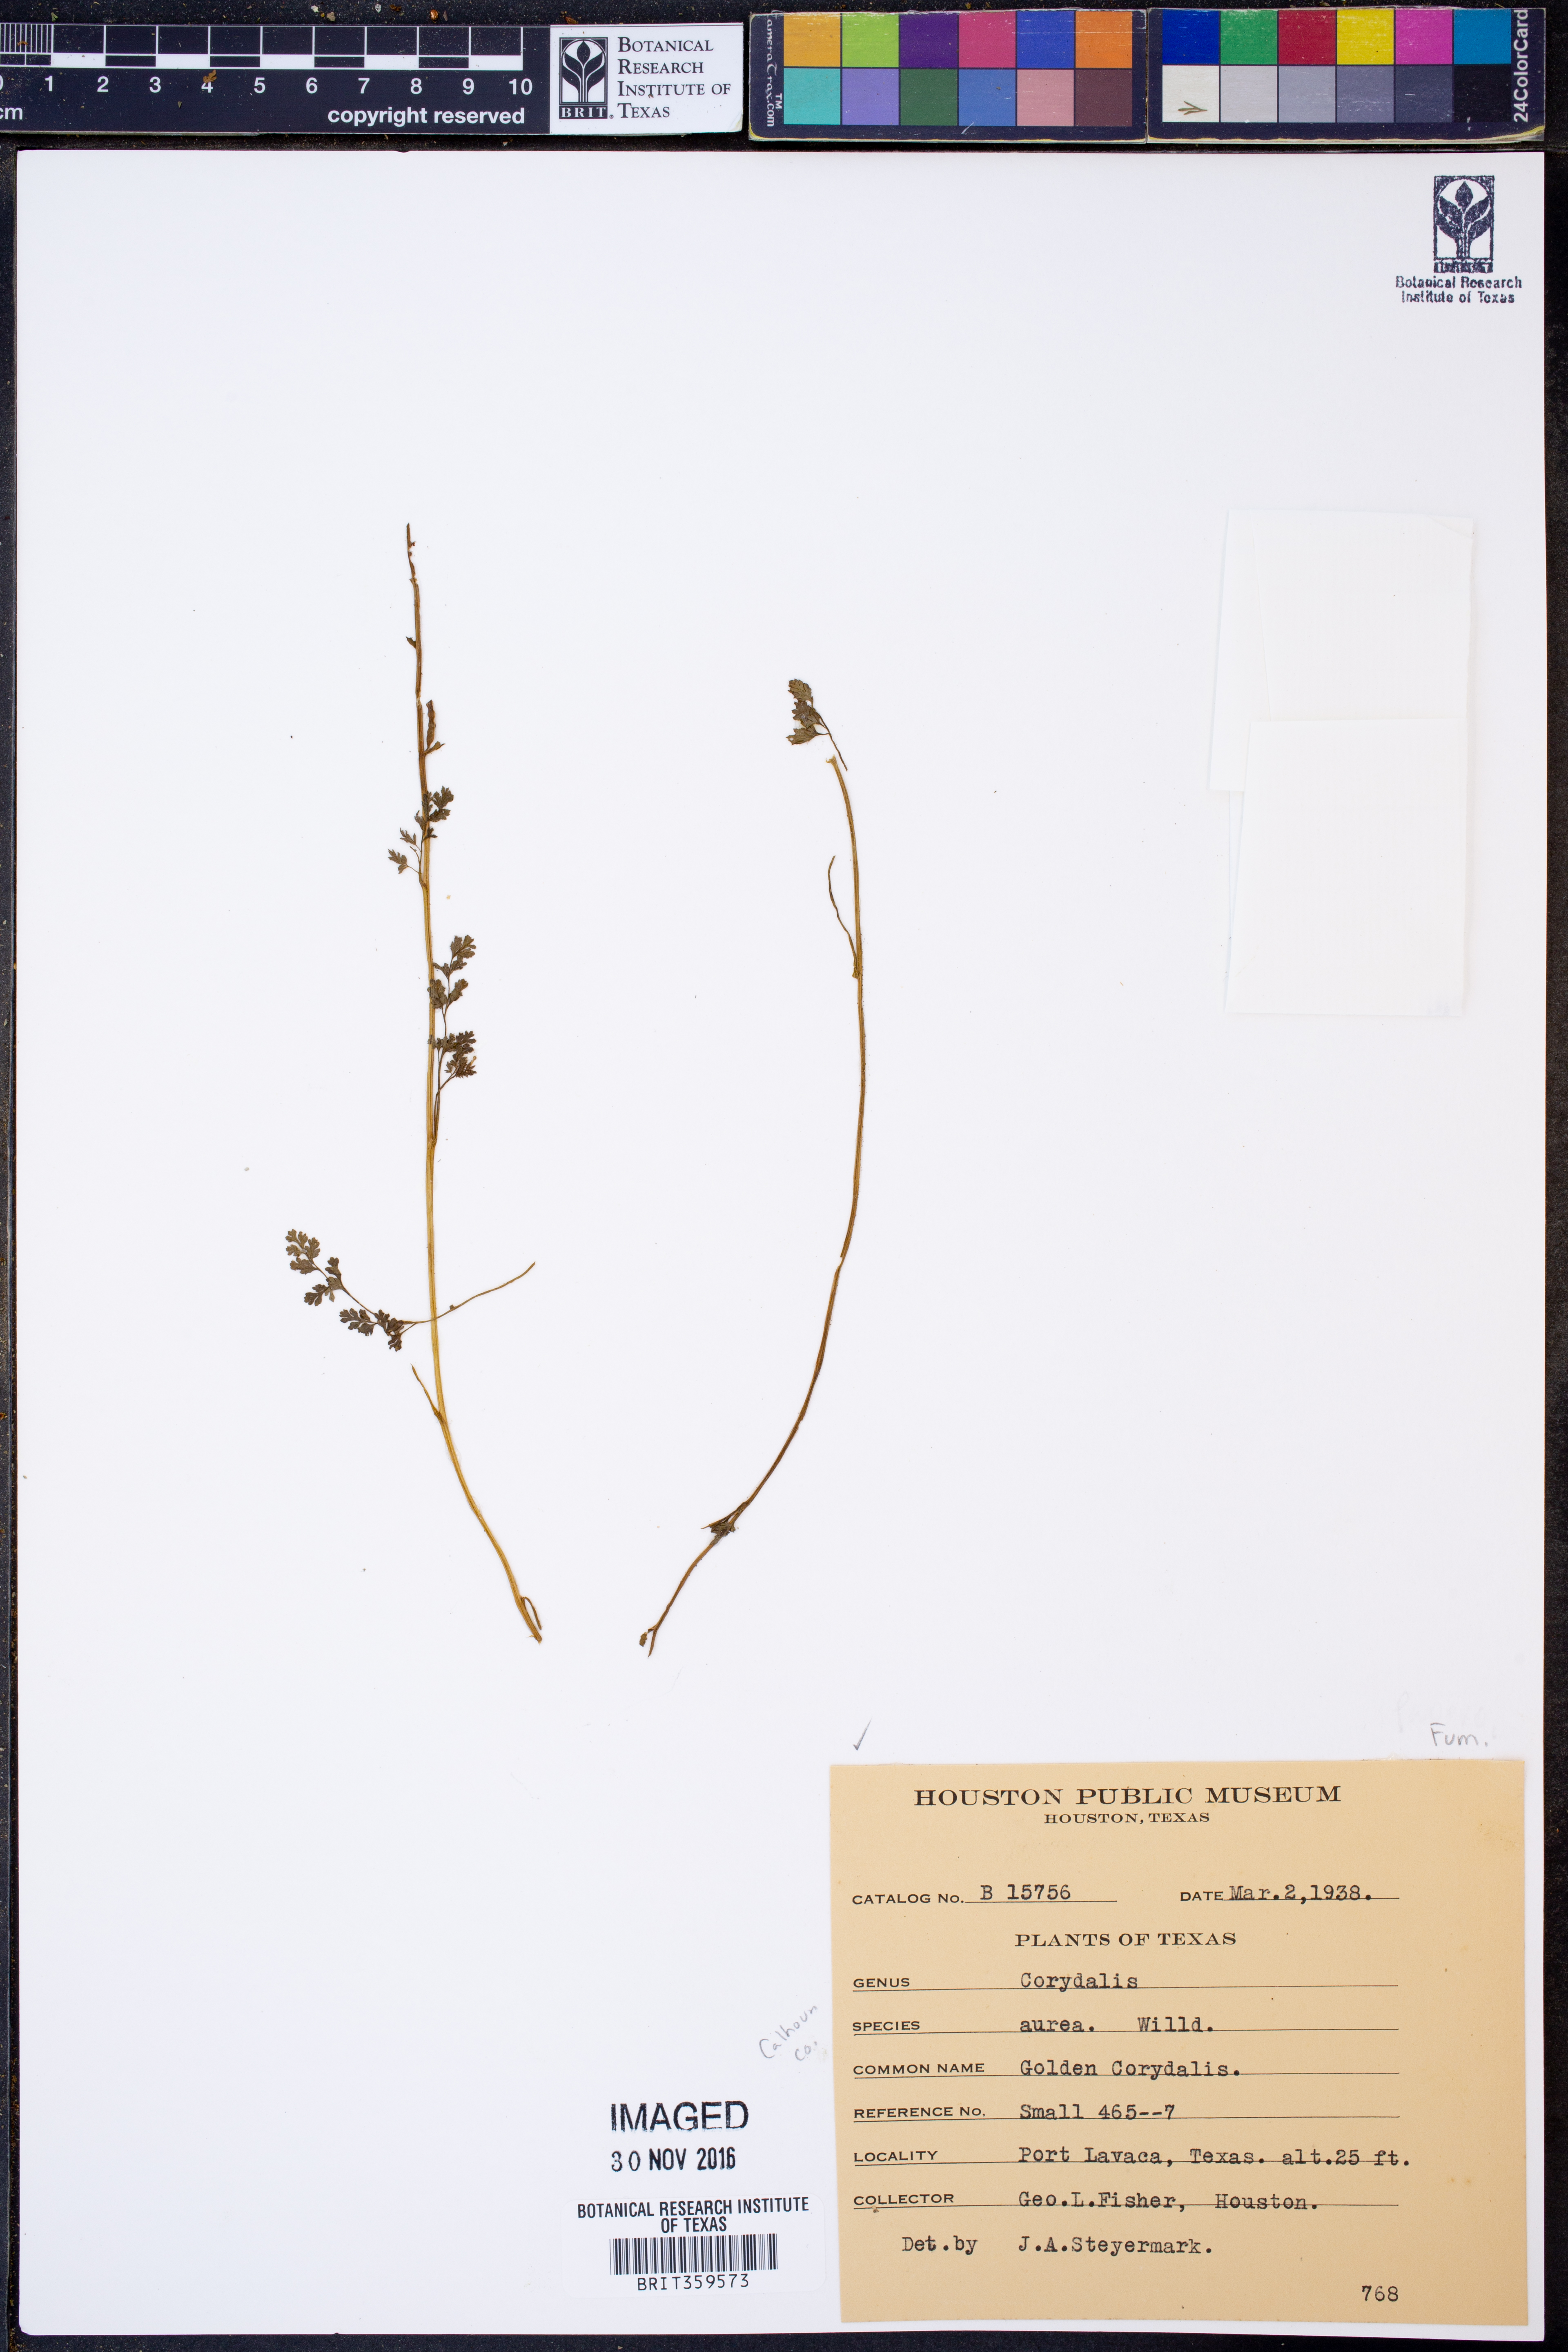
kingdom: Plantae
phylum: Tracheophyta
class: Magnoliopsida
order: Ranunculales
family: Papaveraceae
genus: Corydalis
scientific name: Corydalis aurea
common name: Golden corydalis
